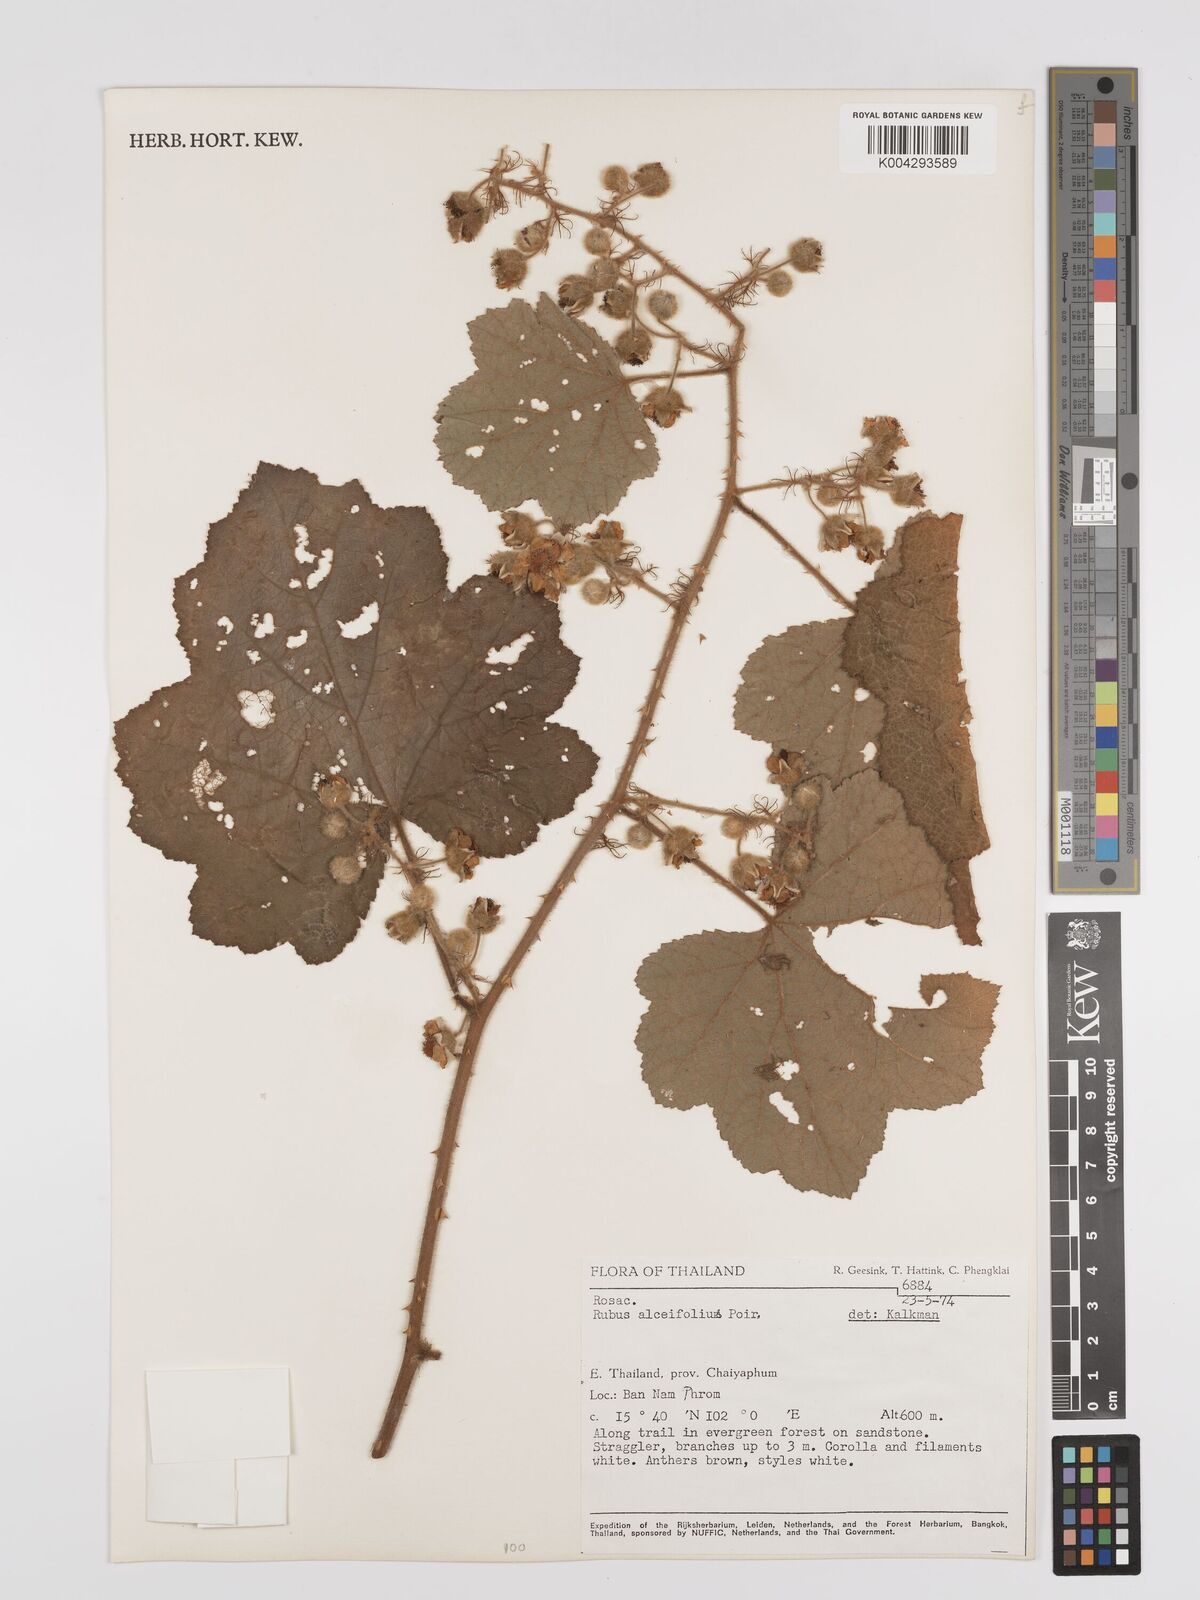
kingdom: Plantae
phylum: Tracheophyta
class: Magnoliopsida
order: Rosales
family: Rosaceae
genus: Rubus
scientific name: Rubus alceifolius
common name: Giant bramble
